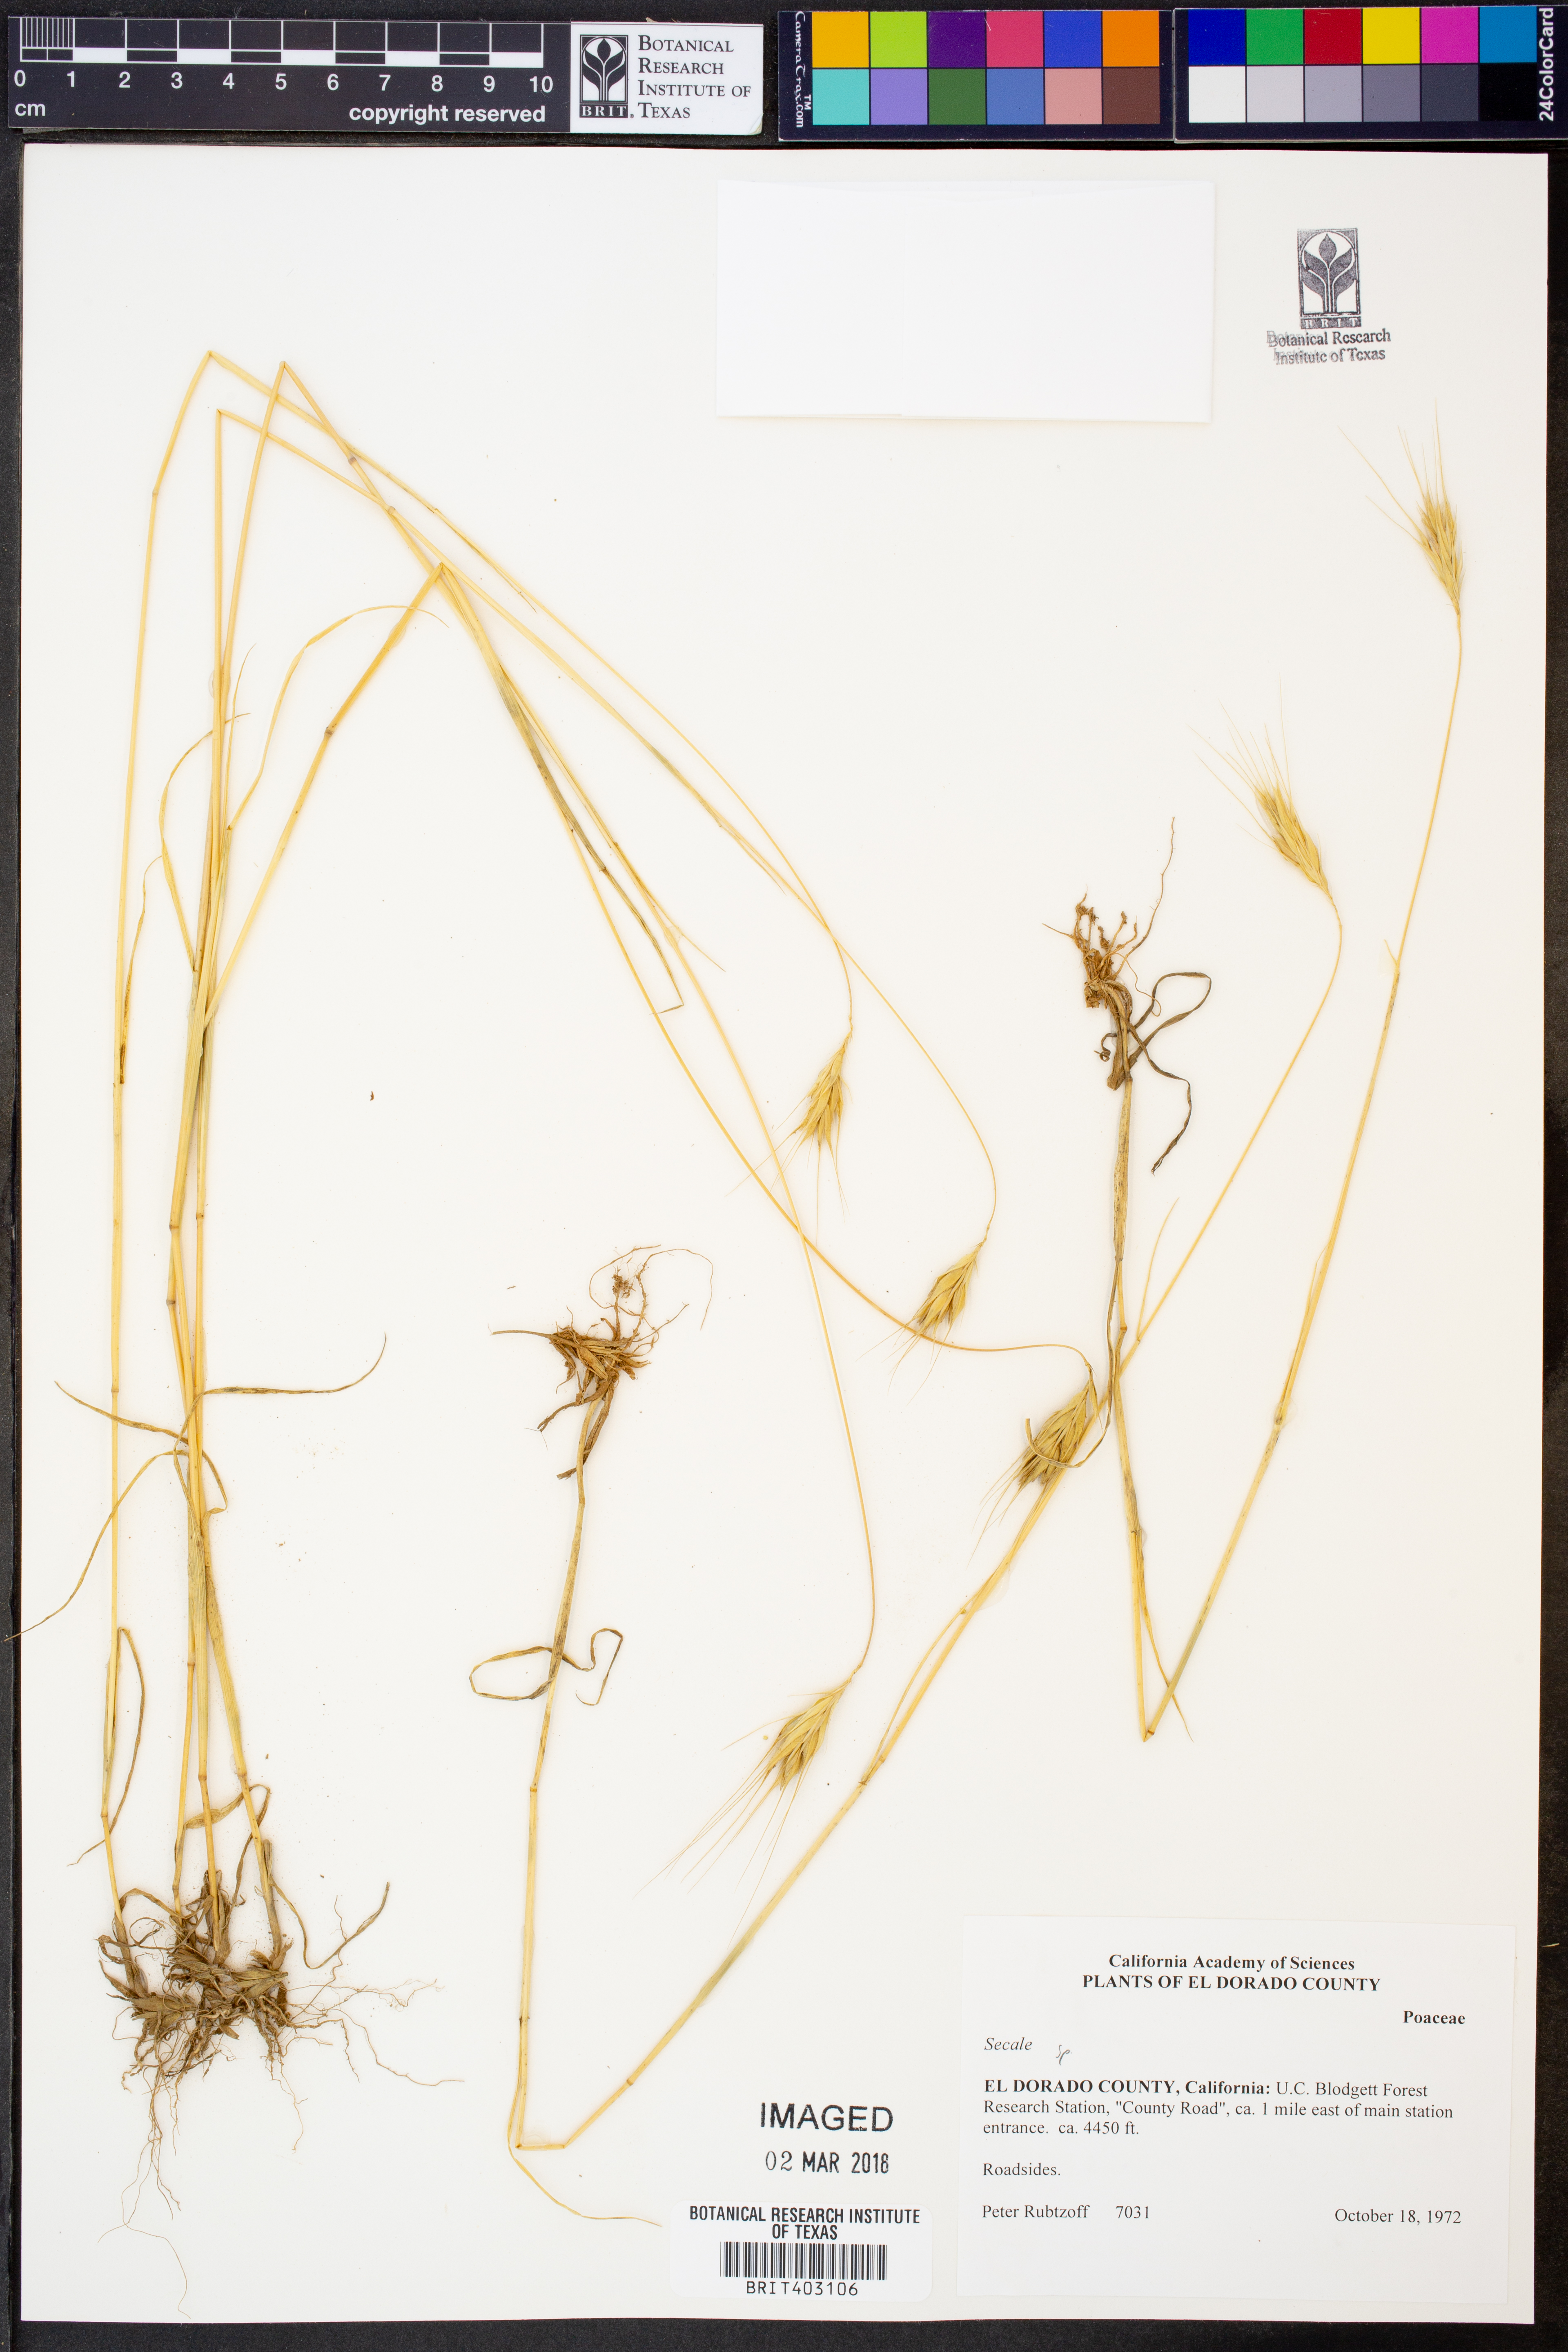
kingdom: Plantae
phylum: Tracheophyta
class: Liliopsida
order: Poales
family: Poaceae
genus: Secale
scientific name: Secale
